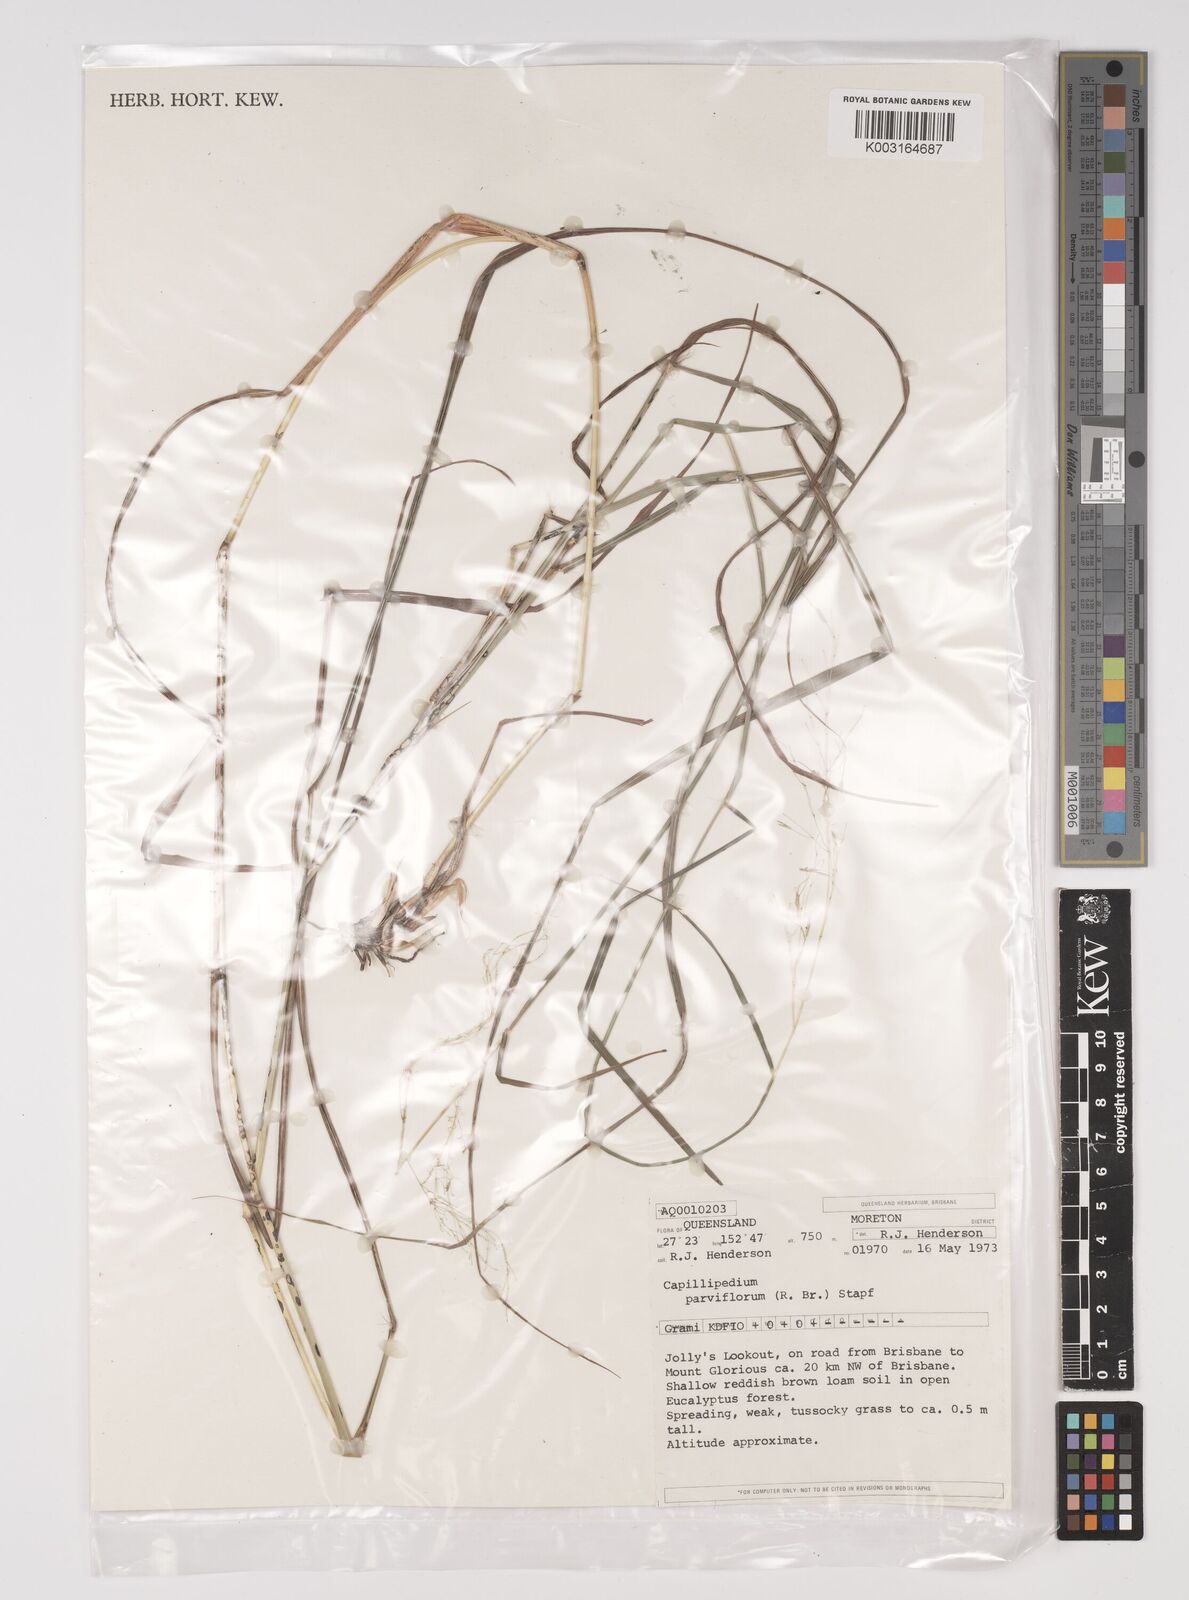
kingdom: Plantae
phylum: Tracheophyta
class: Liliopsida
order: Poales
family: Poaceae
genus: Capillipedium
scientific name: Capillipedium parviflorum
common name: Golden-beard
